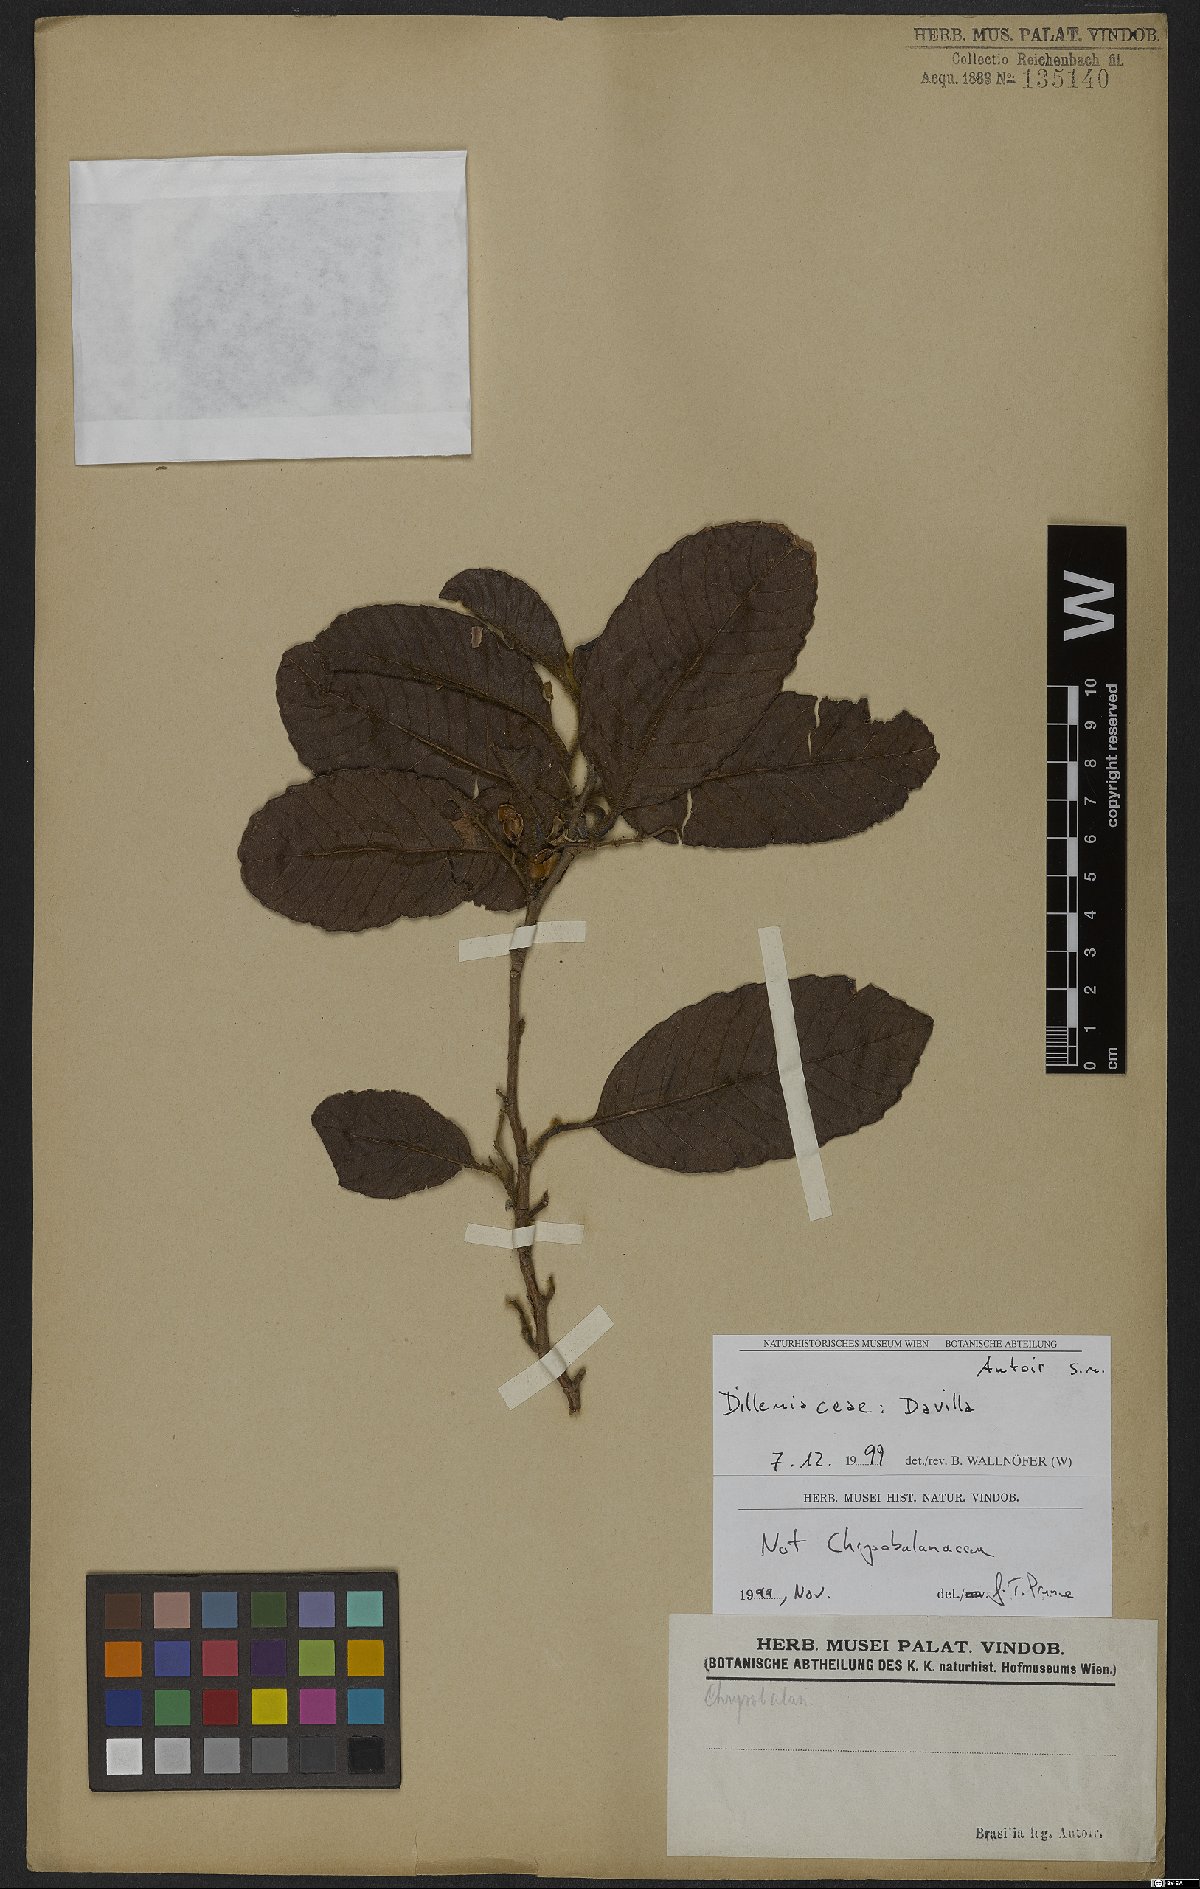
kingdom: Plantae
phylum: Tracheophyta
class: Magnoliopsida
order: Dilleniales
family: Dilleniaceae
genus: Davilla
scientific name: Davilla
